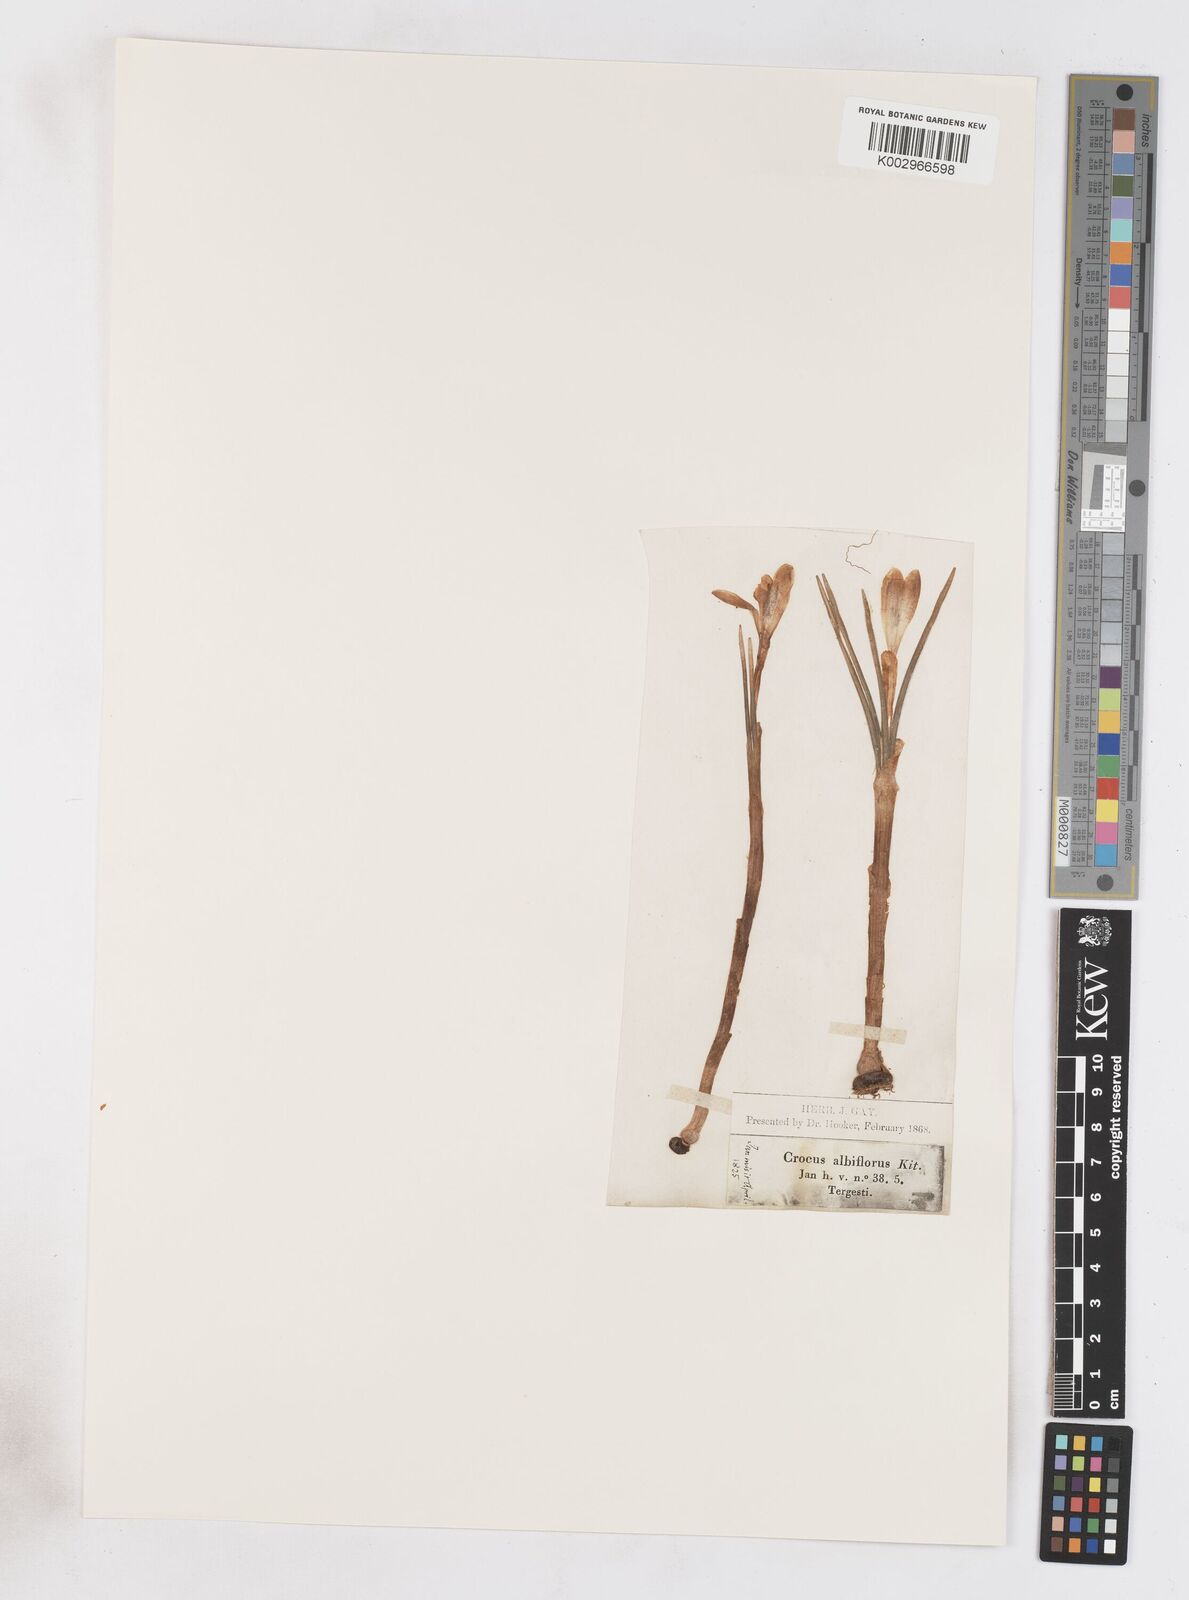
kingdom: Plantae
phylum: Tracheophyta
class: Liliopsida
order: Asparagales
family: Iridaceae
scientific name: Iridaceae
